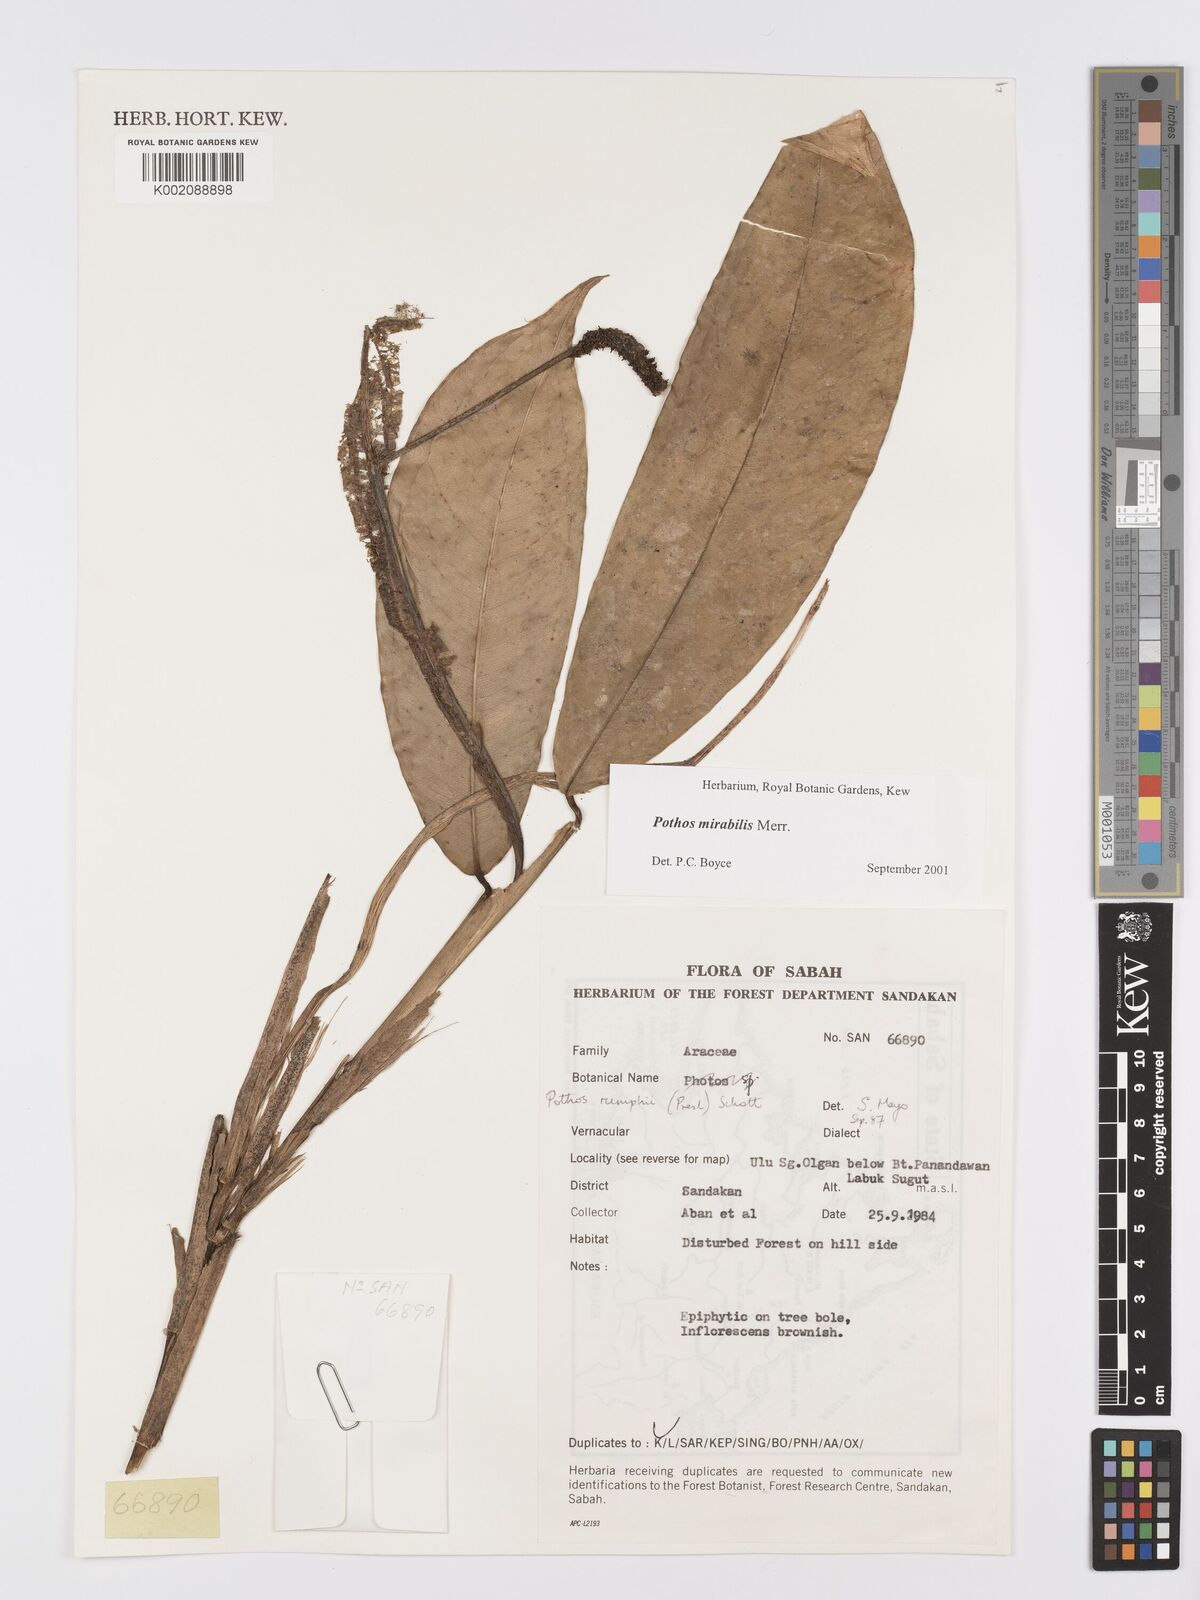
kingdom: Plantae
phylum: Tracheophyta
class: Liliopsida
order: Alismatales
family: Araceae
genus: Pothos
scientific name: Pothos mirabilis
